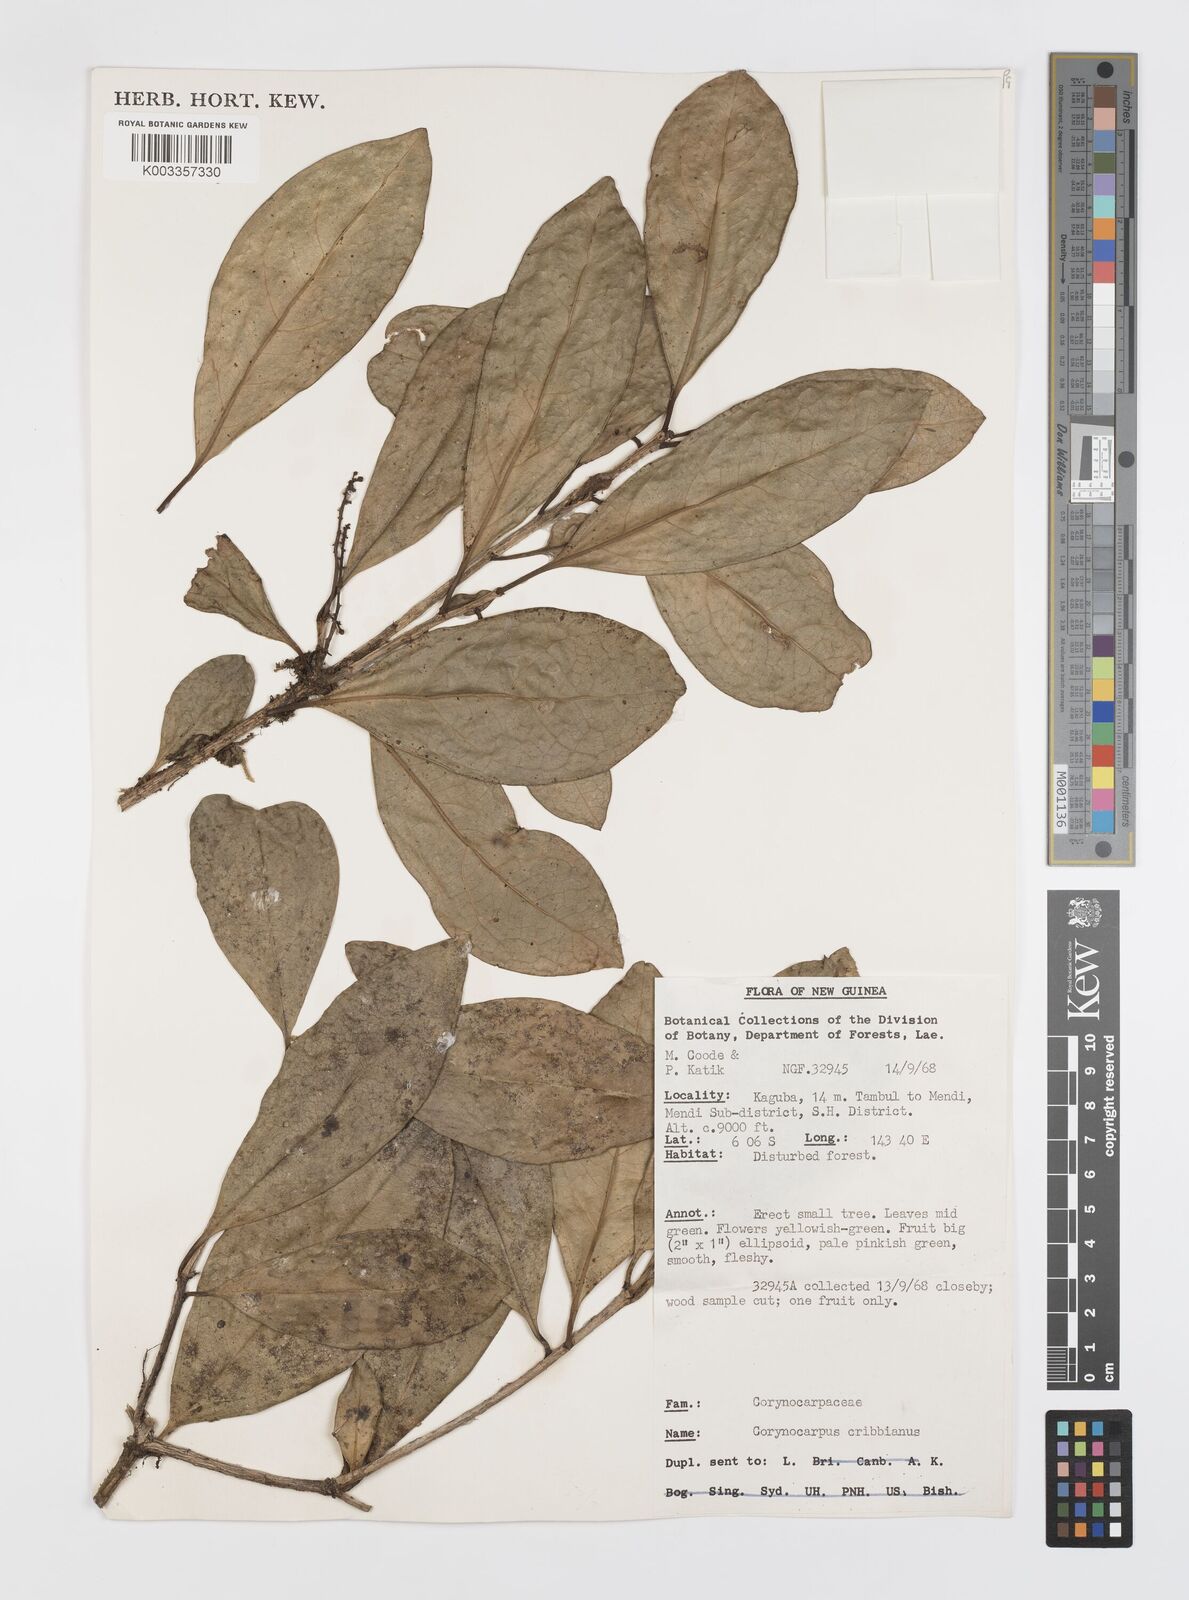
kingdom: Plantae
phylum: Tracheophyta
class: Magnoliopsida
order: Cucurbitales
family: Corynocarpaceae
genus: Corynocarpus
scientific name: Corynocarpus cribbianus
